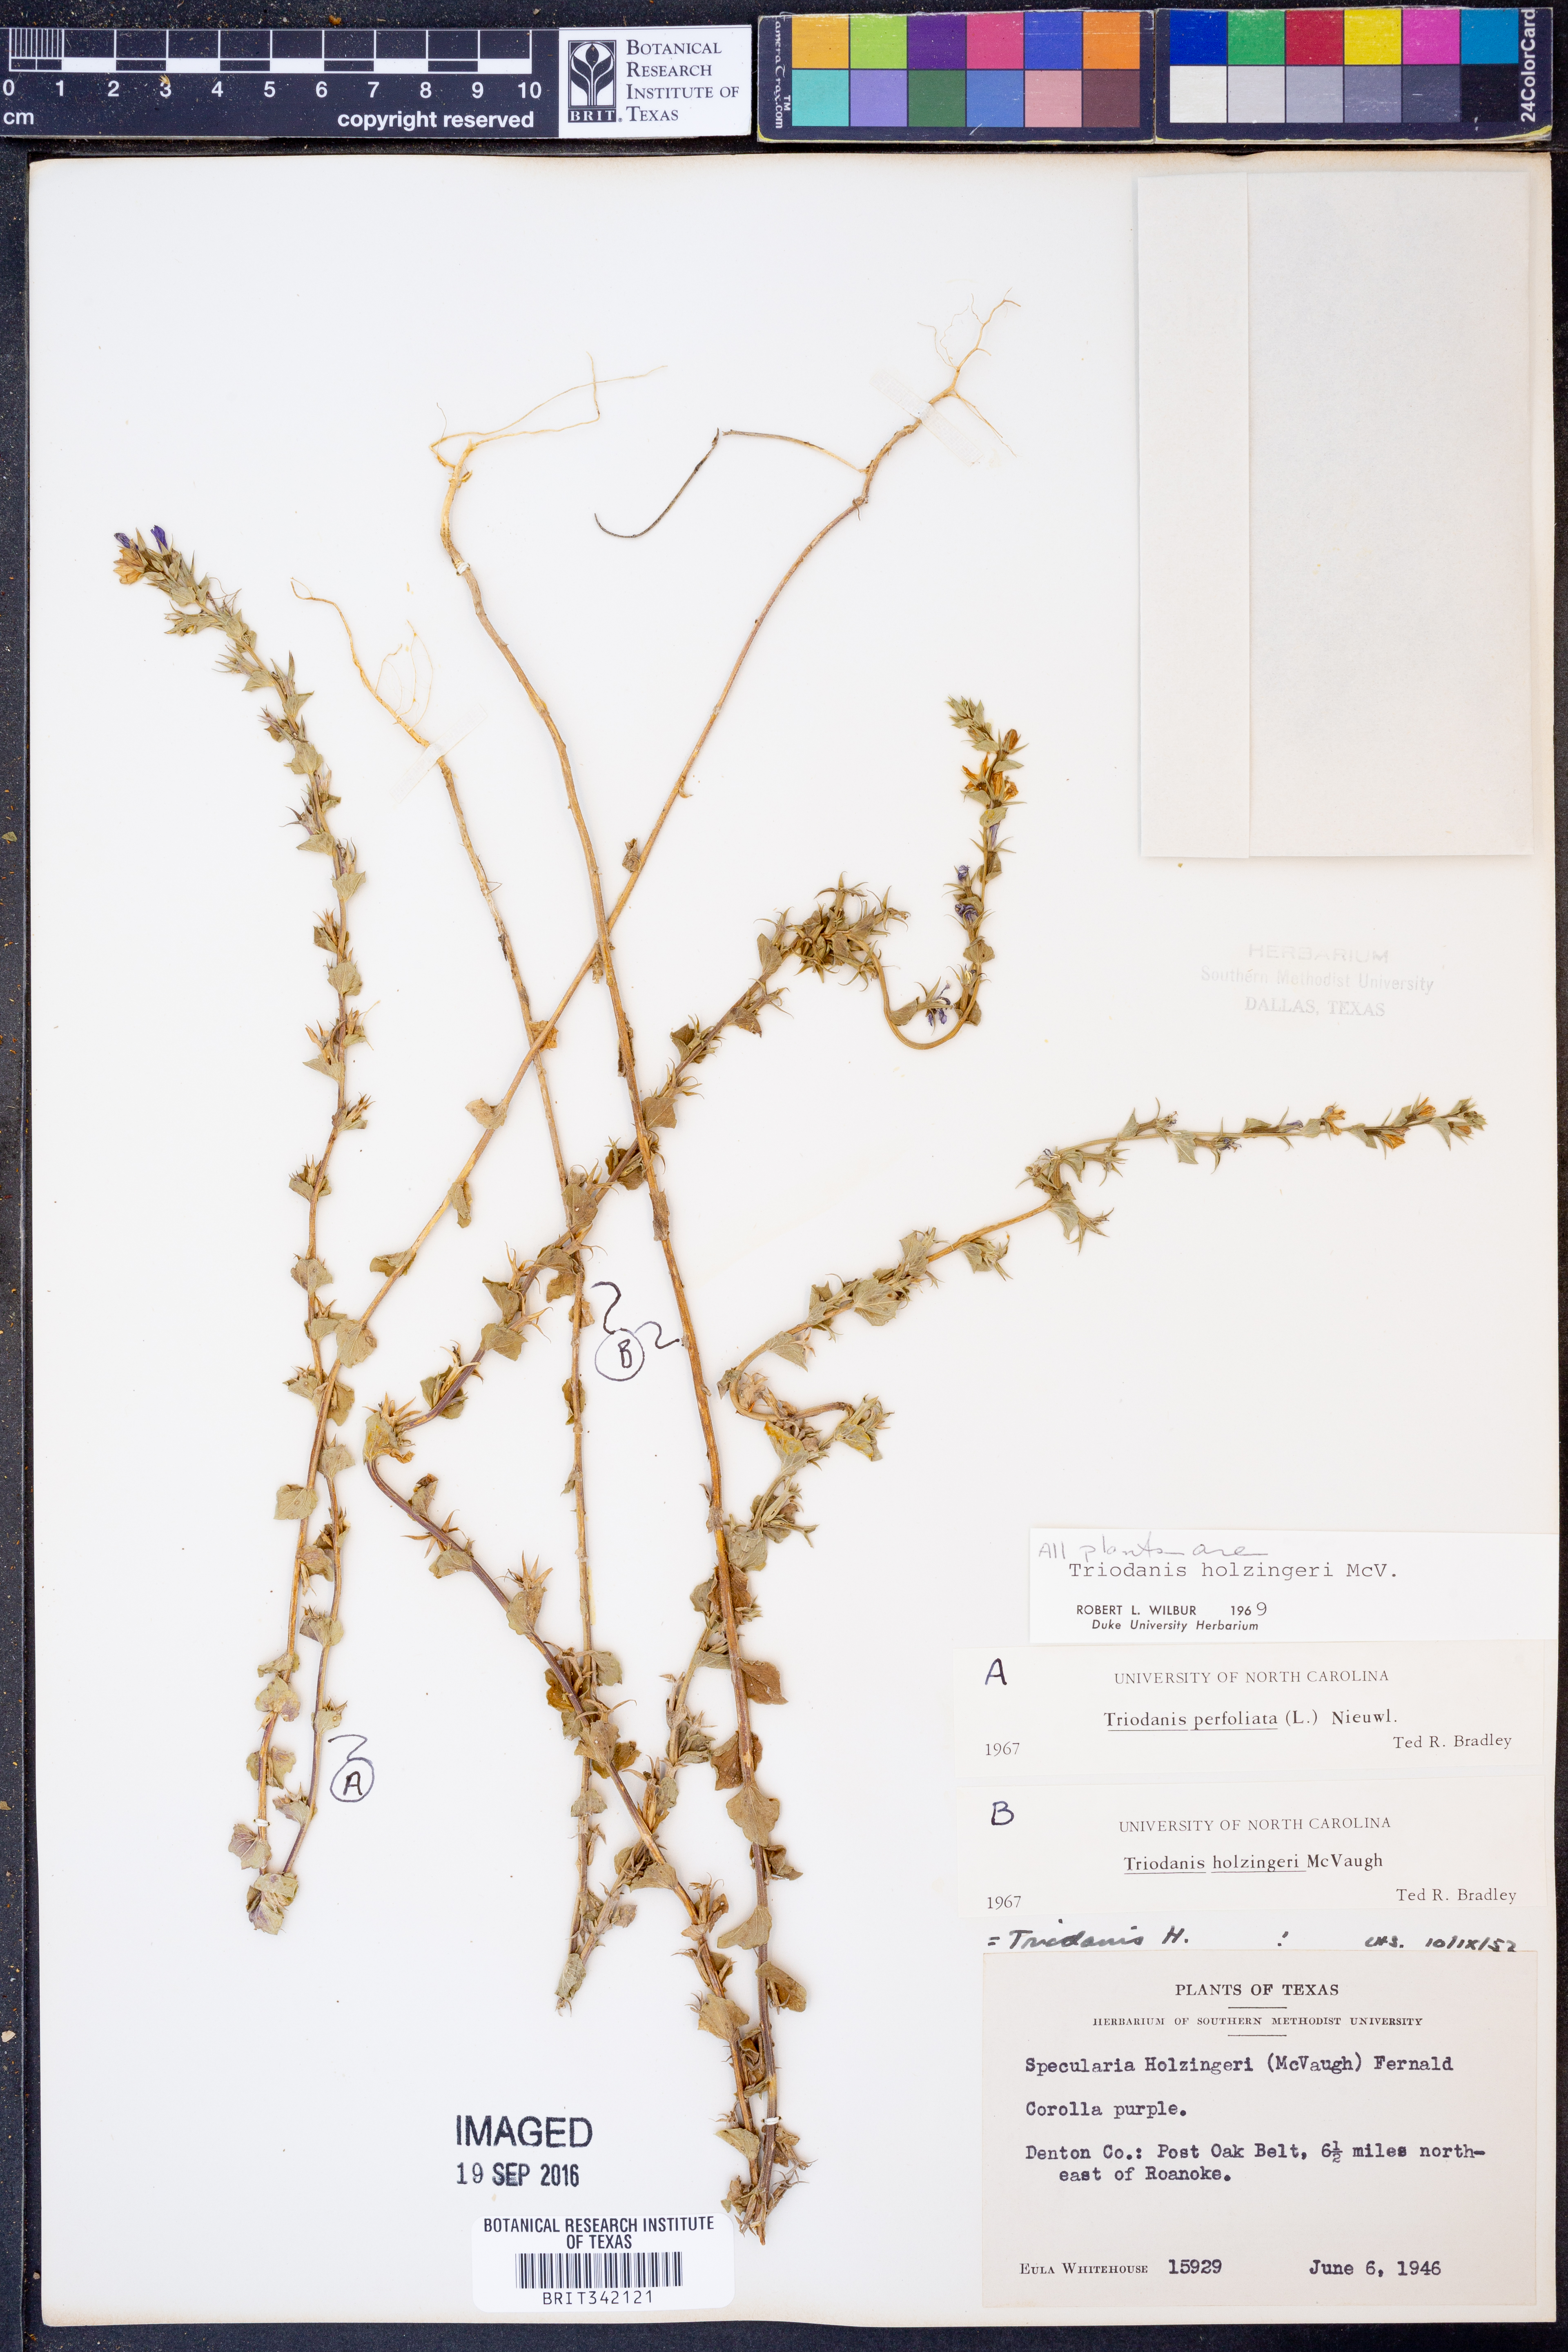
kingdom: Plantae
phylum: Tracheophyta
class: Magnoliopsida
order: Asterales
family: Campanulaceae
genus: Triodanis
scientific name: Triodanis holzingeri
